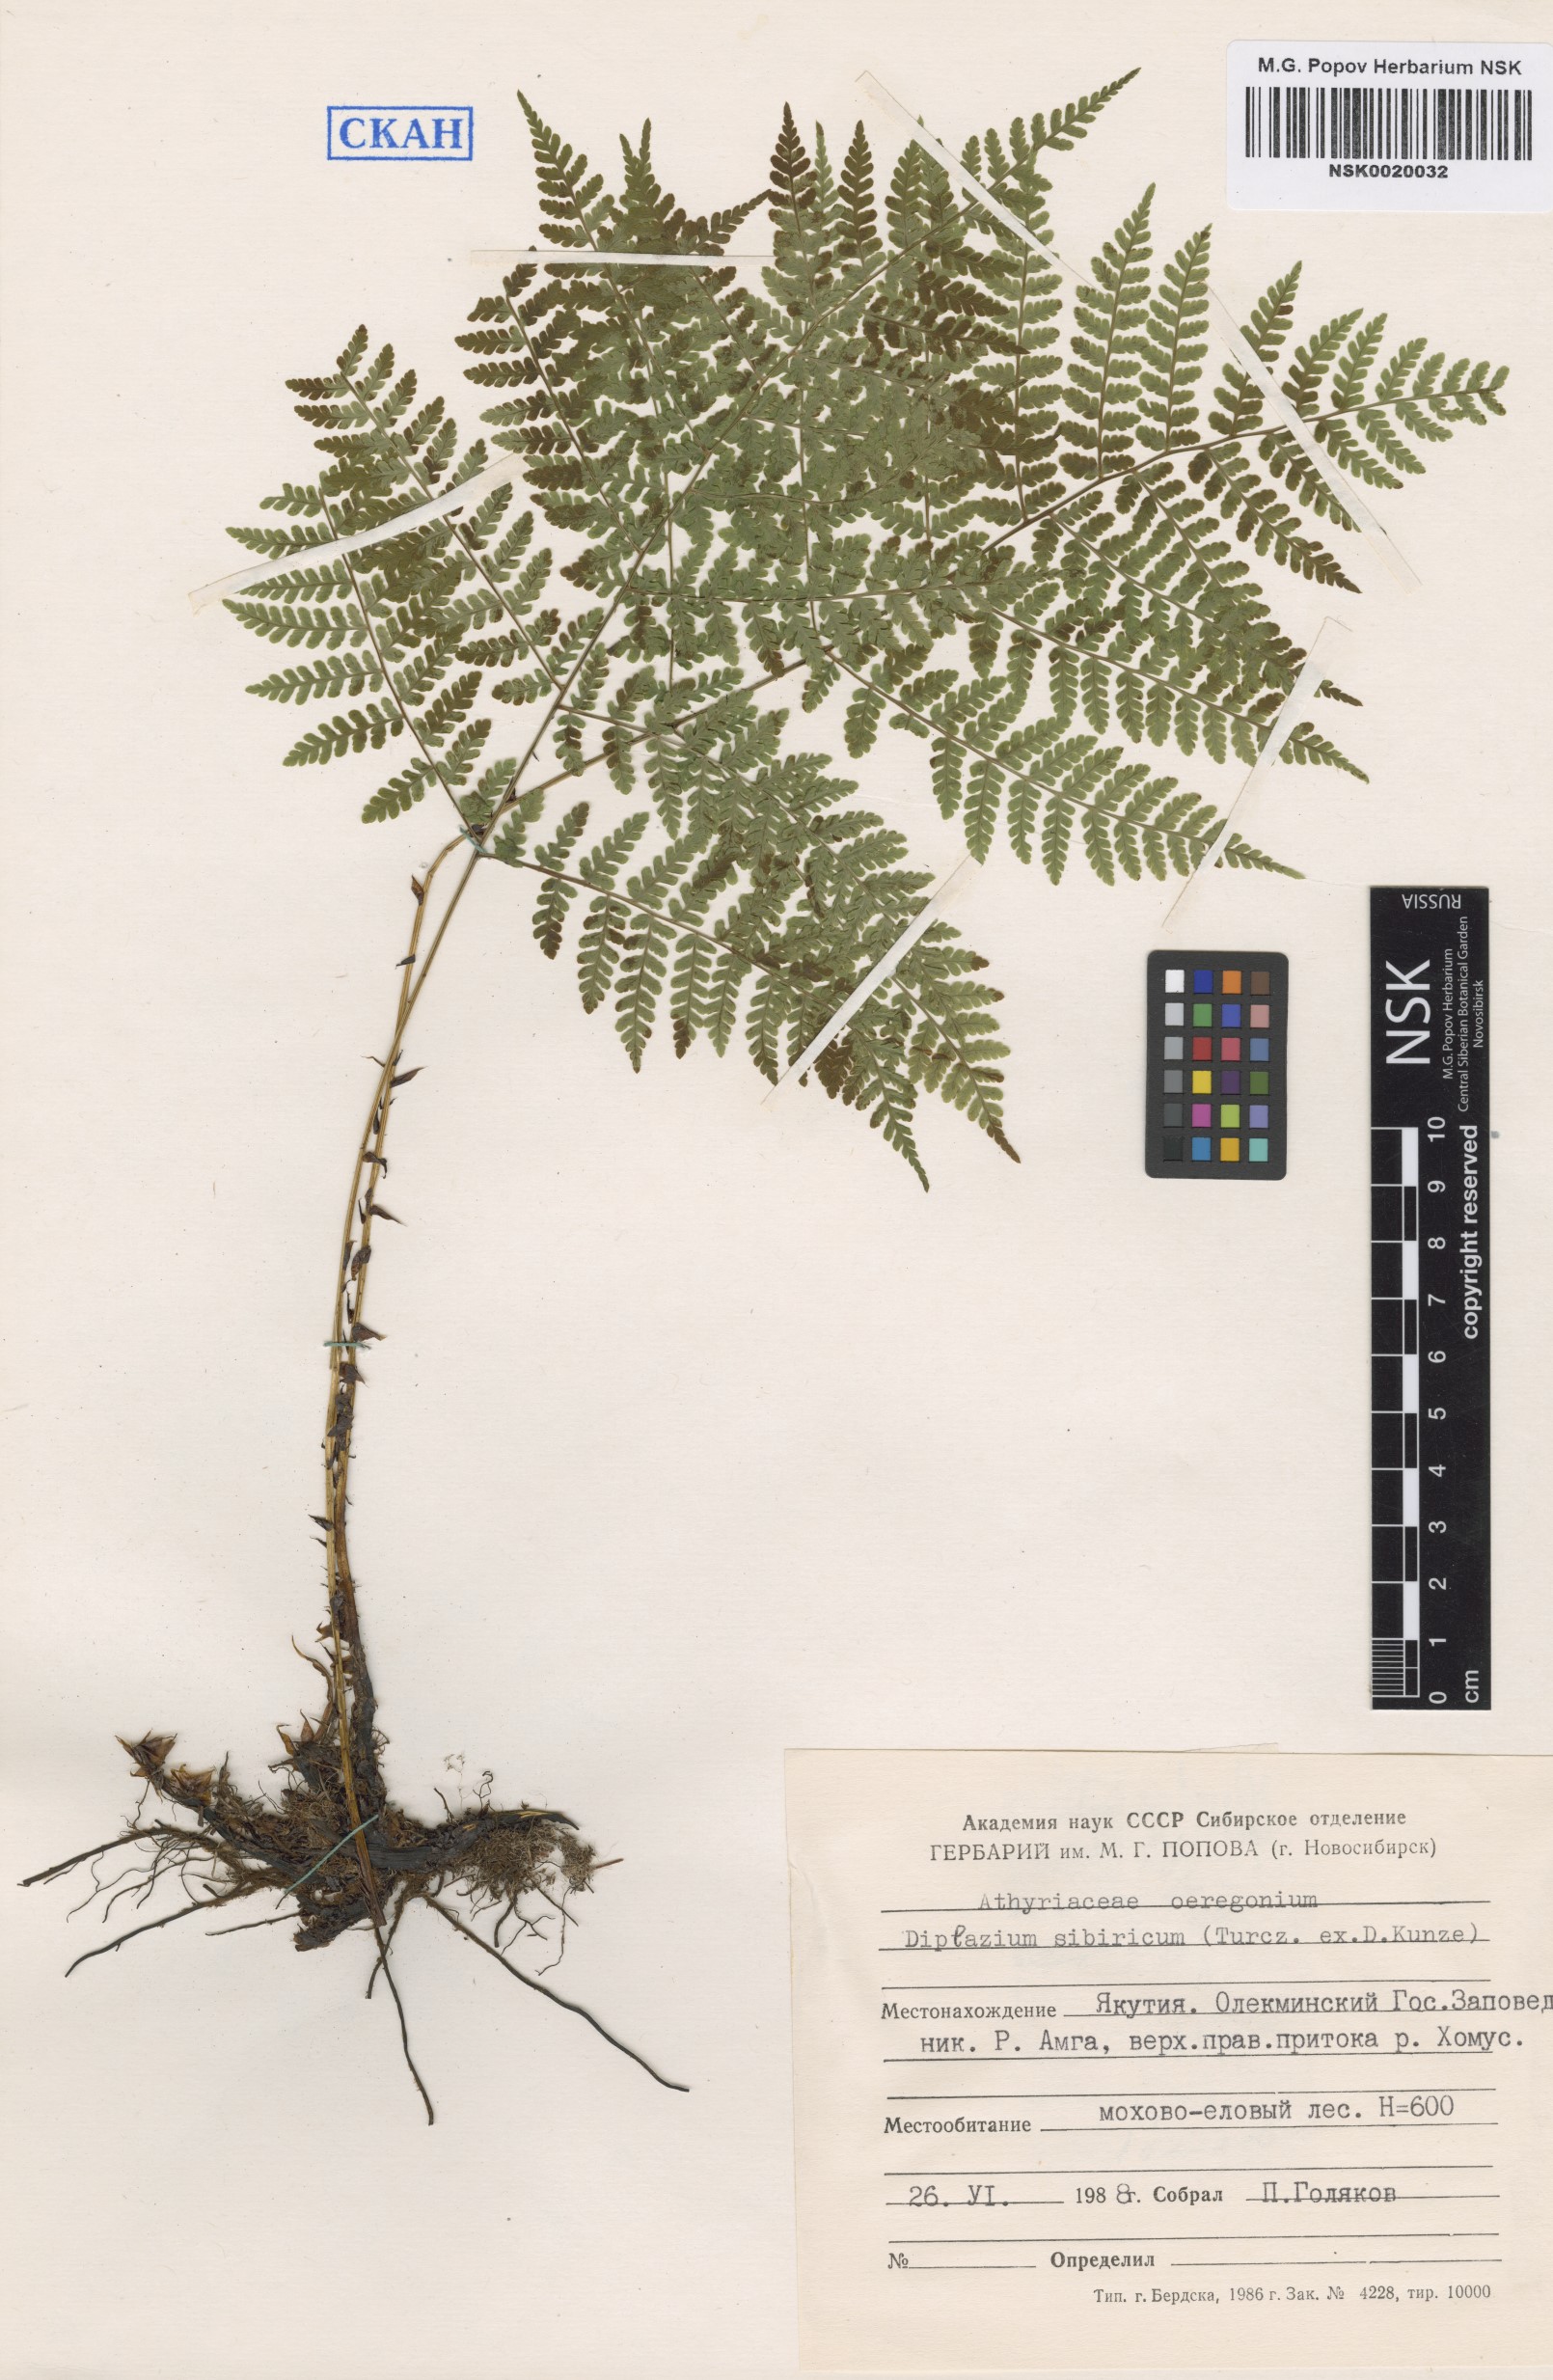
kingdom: Plantae
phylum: Tracheophyta
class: Polypodiopsida
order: Polypodiales
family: Athyriaceae
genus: Diplazium
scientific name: Diplazium sibiricum
